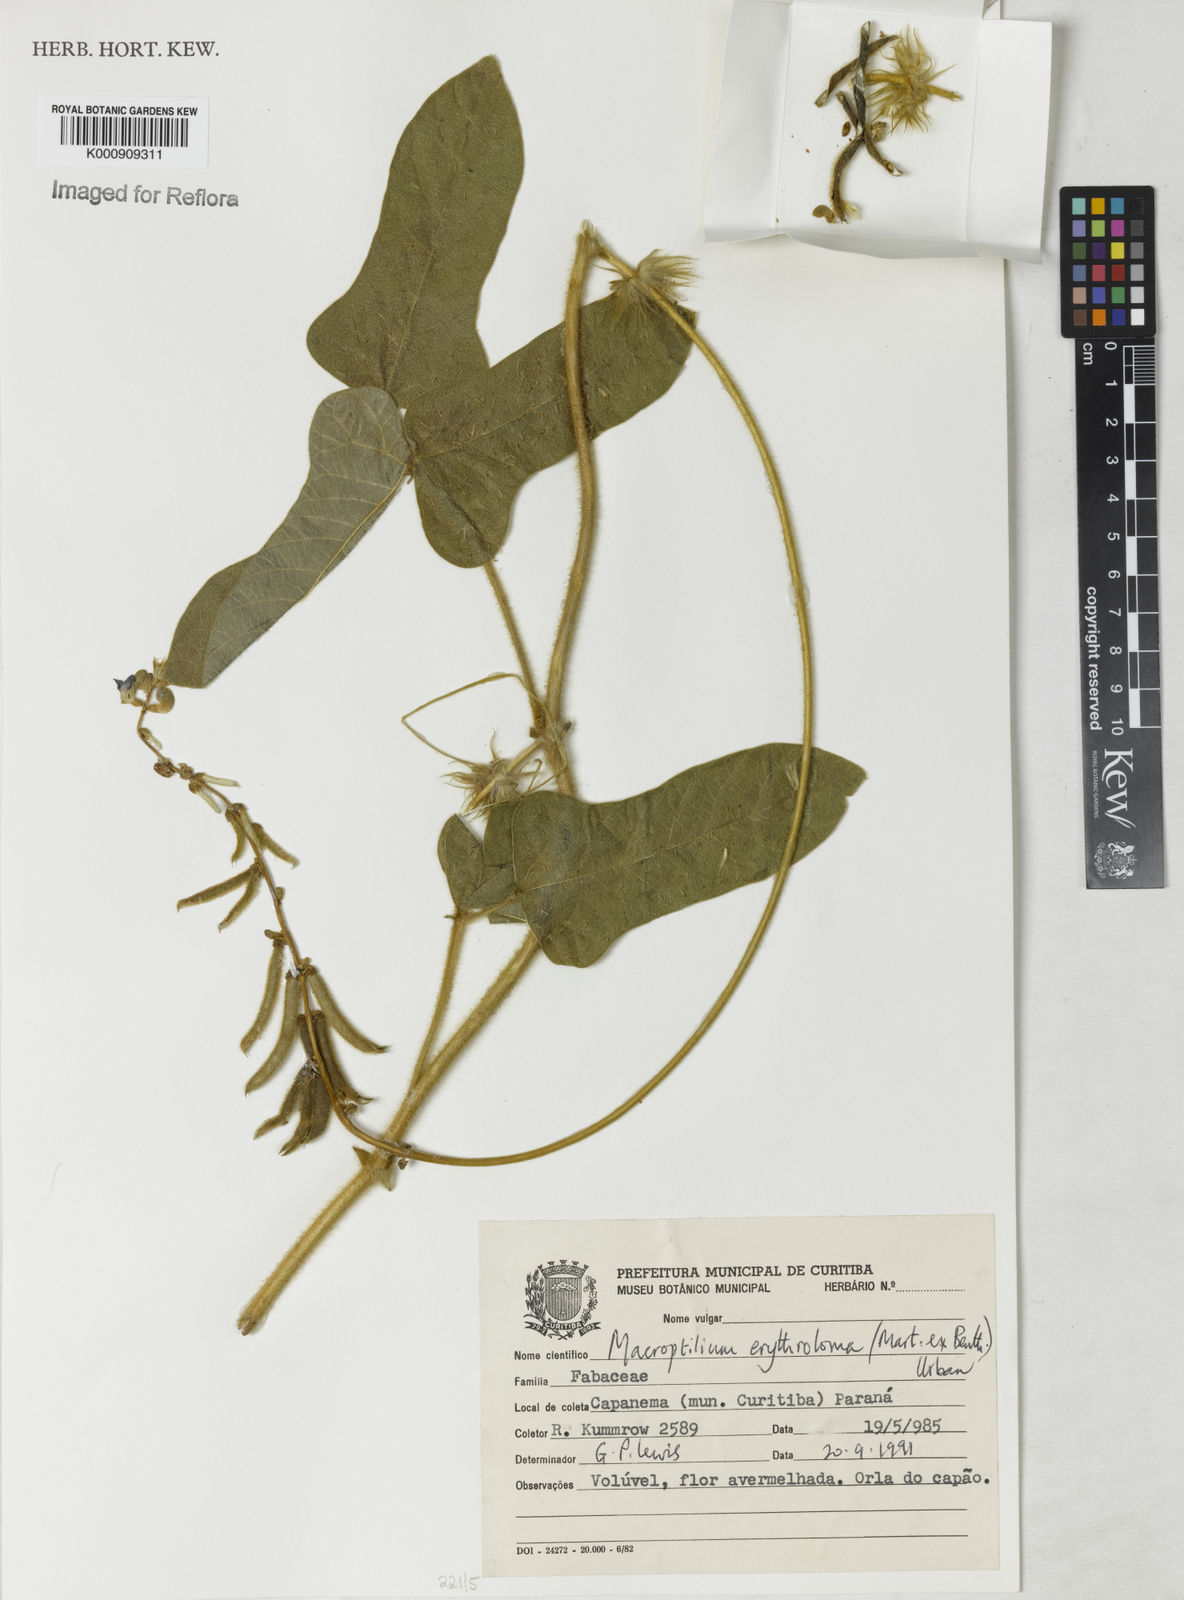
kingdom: Plantae
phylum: Tracheophyta
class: Magnoliopsida
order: Fabales
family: Fabaceae
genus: Macroptilium
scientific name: Macroptilium erythroloma
